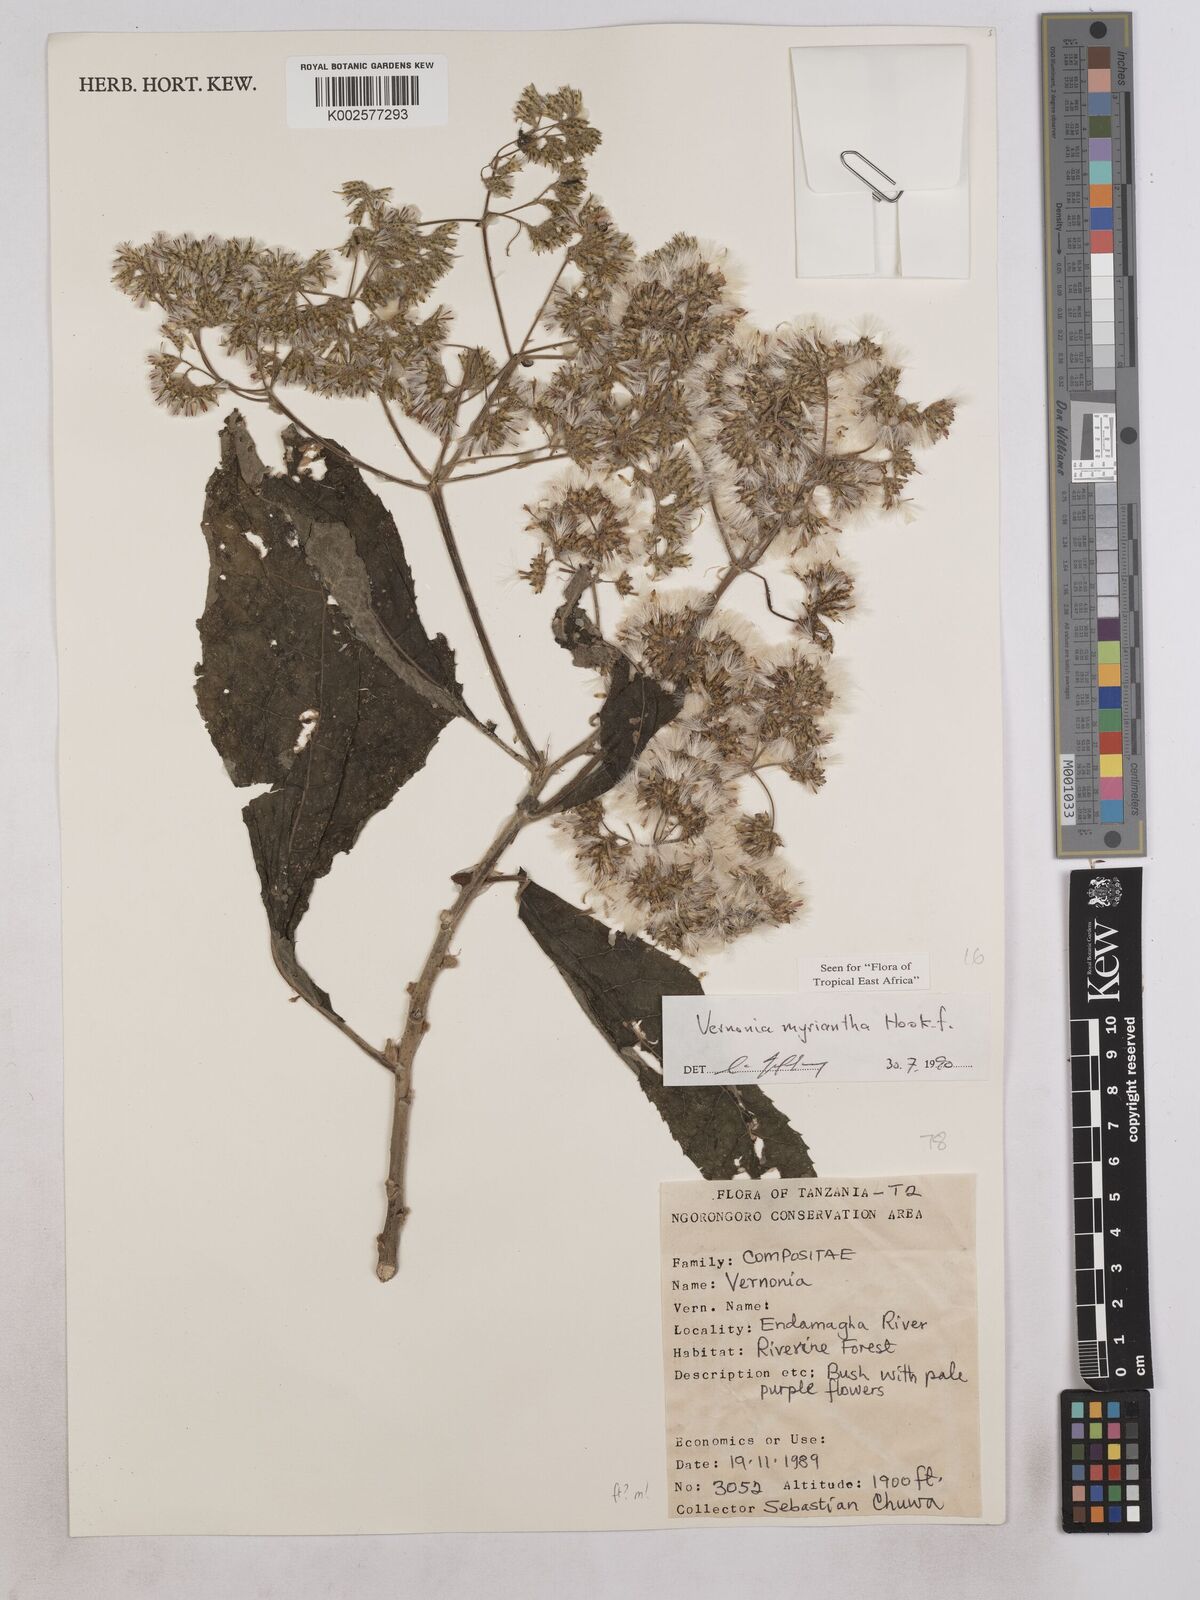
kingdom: Plantae
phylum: Tracheophyta
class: Magnoliopsida
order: Asterales
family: Asteraceae
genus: Gymnanthemum
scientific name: Gymnanthemum myrianthum
